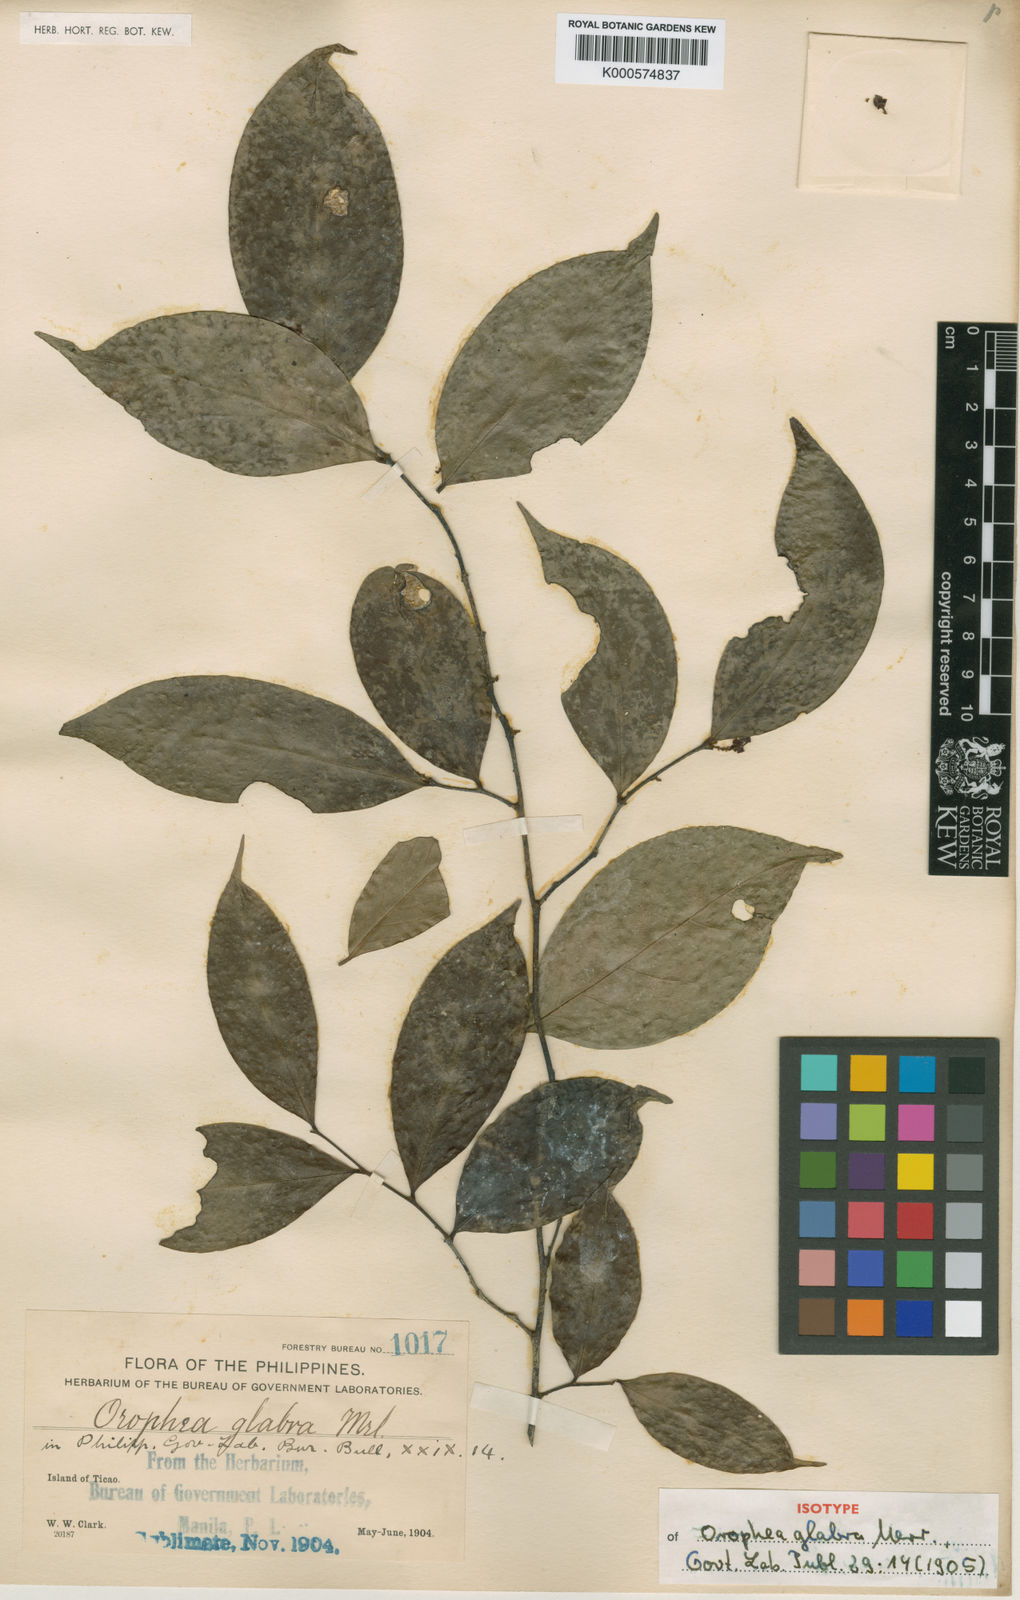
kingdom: Plantae
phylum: Tracheophyta
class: Magnoliopsida
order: Magnoliales
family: Annonaceae
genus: Orophea
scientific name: Orophea glabra
